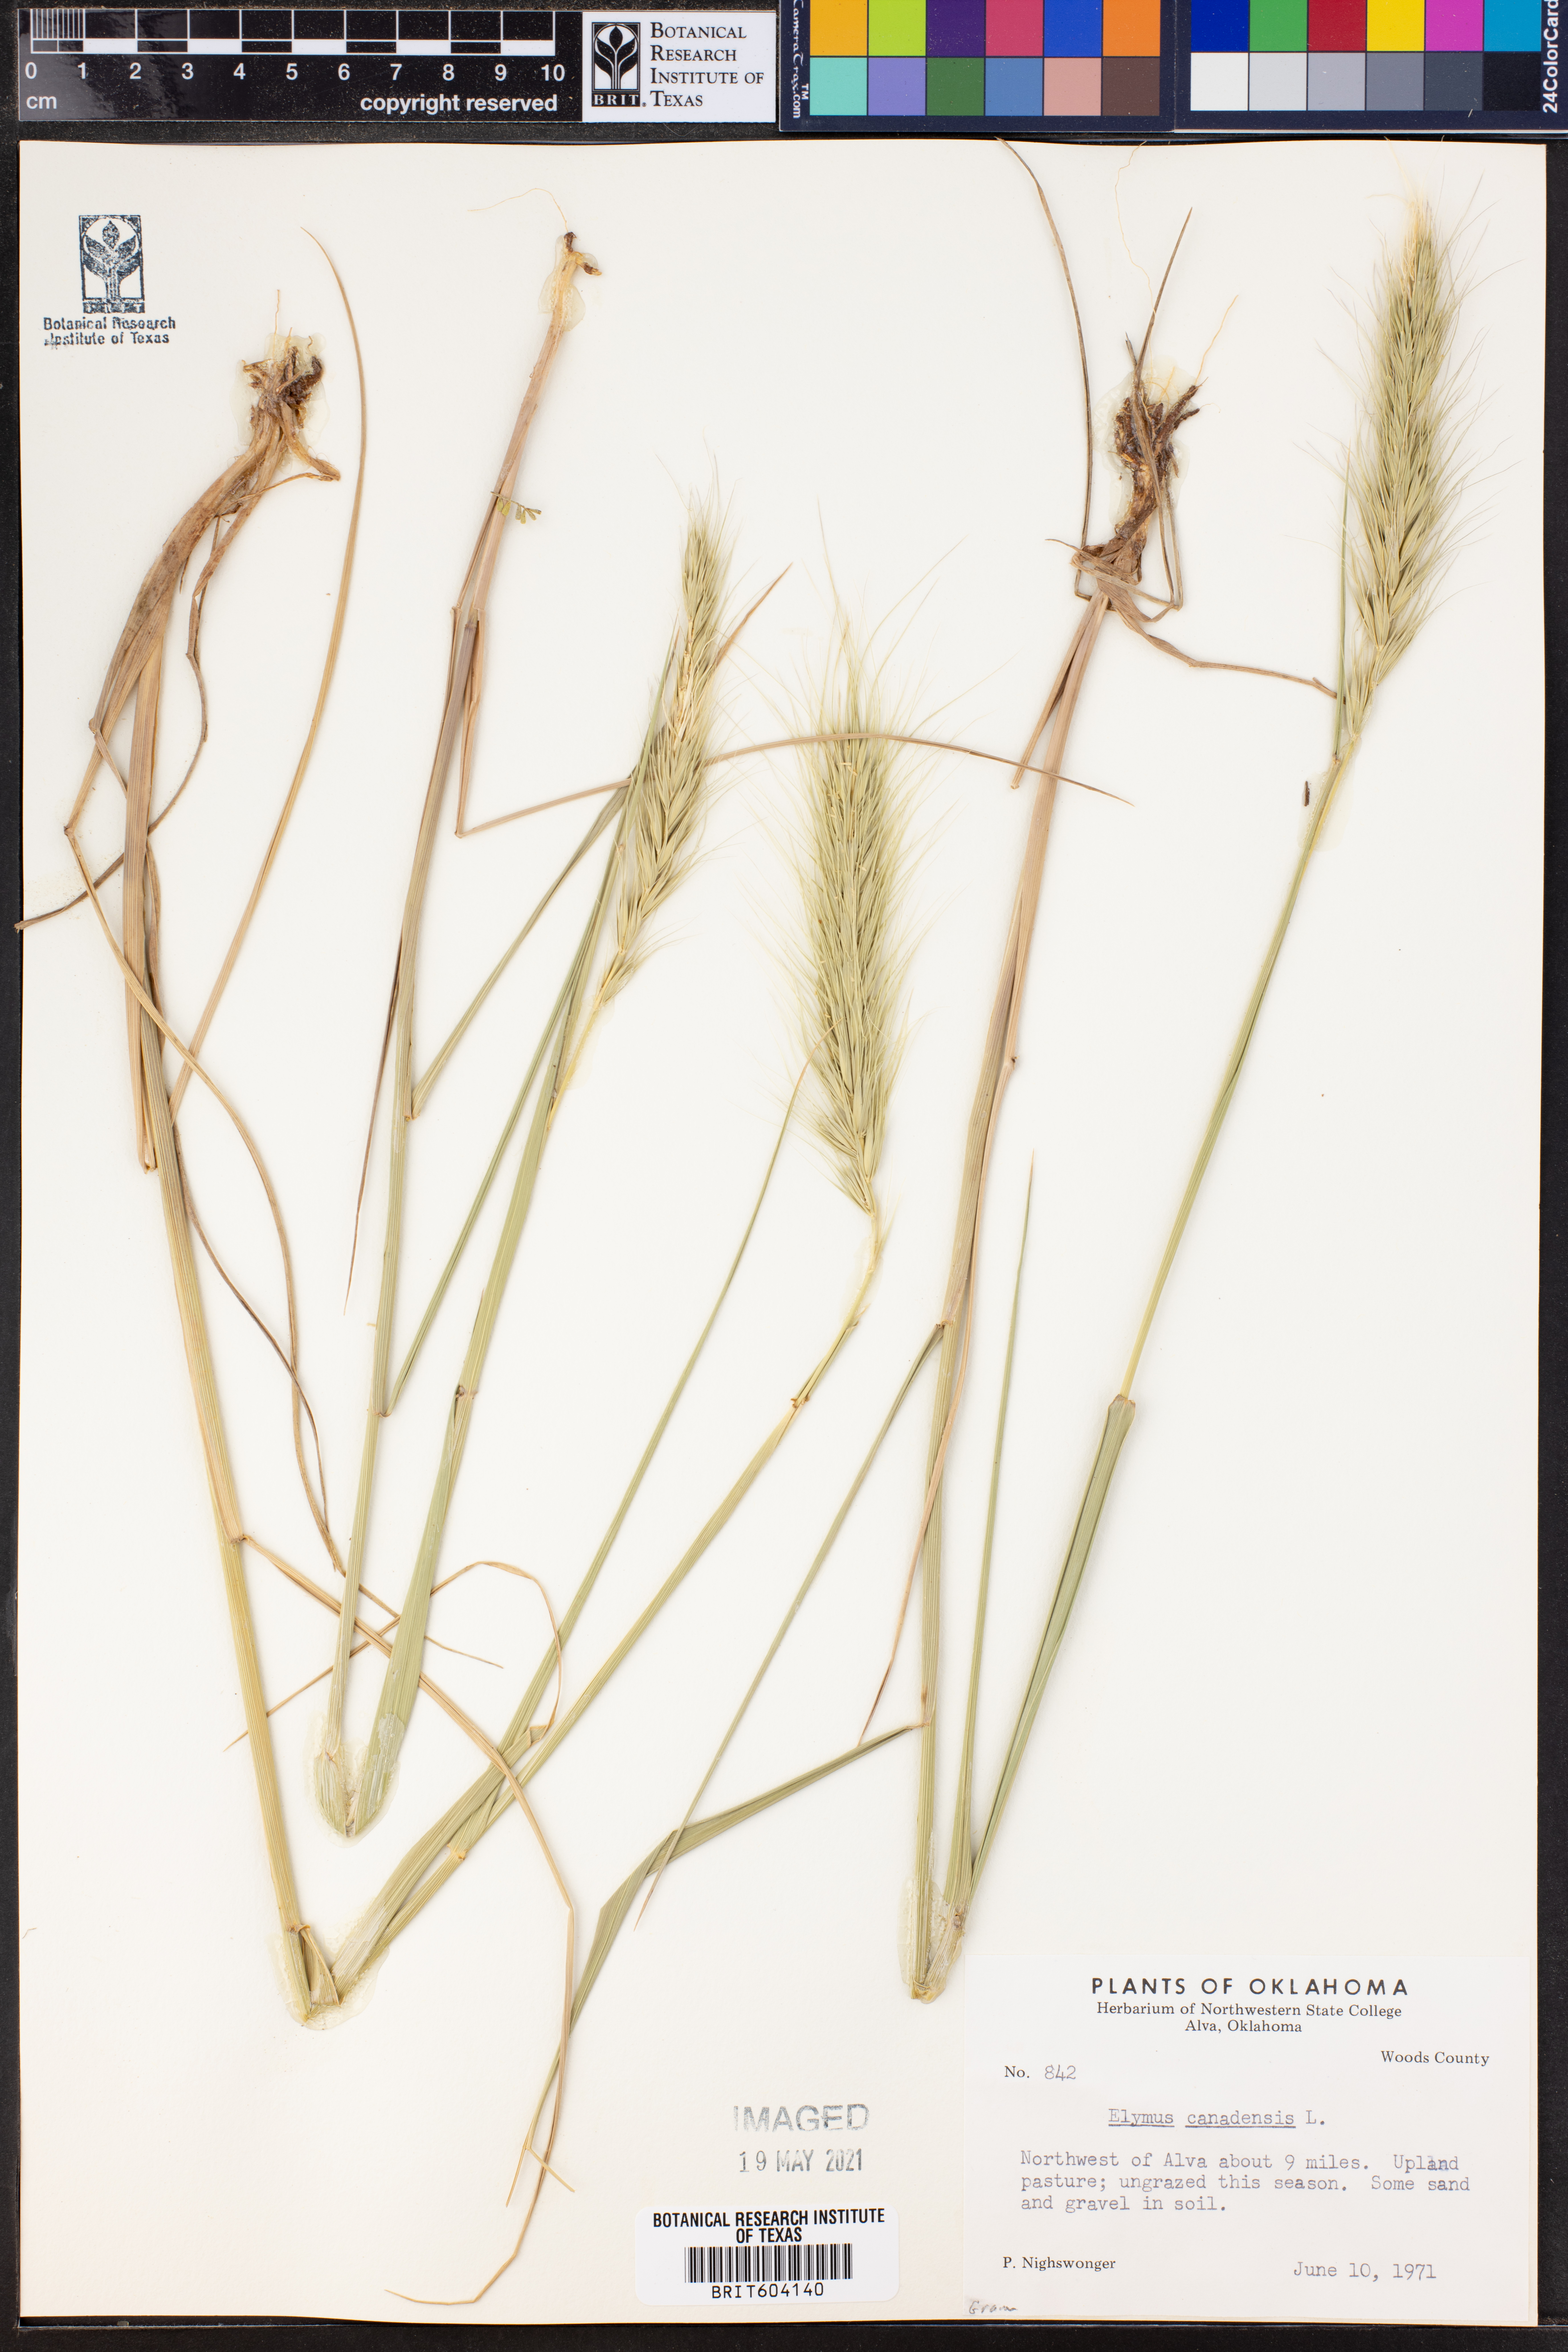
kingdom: Plantae
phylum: Tracheophyta
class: Liliopsida
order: Poales
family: Poaceae
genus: Elymus
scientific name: Elymus canadensis
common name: Canada wild rye
